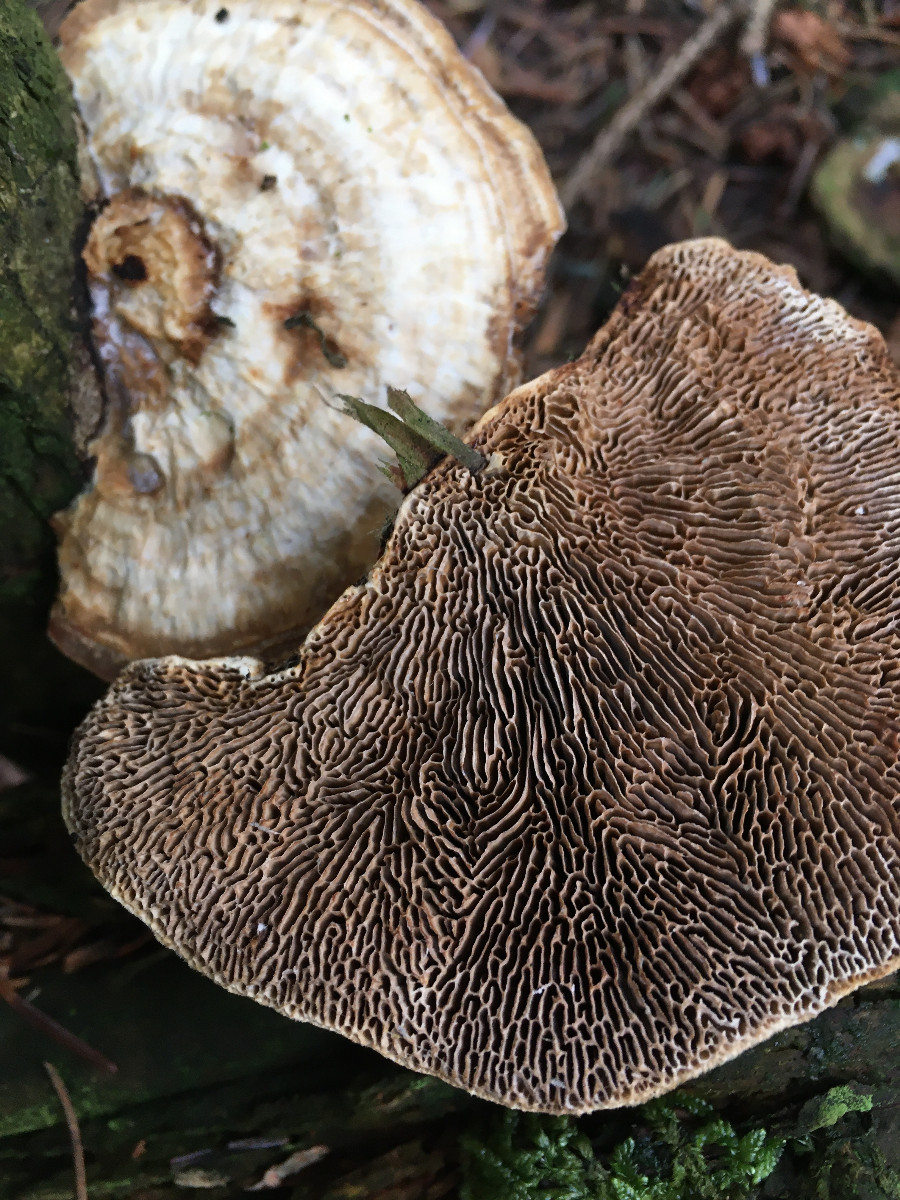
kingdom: Fungi
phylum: Basidiomycota
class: Agaricomycetes
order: Polyporales
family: Polyporaceae
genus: Daedaleopsis
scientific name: Daedaleopsis confragosa
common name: rødmende læderporesvamp
